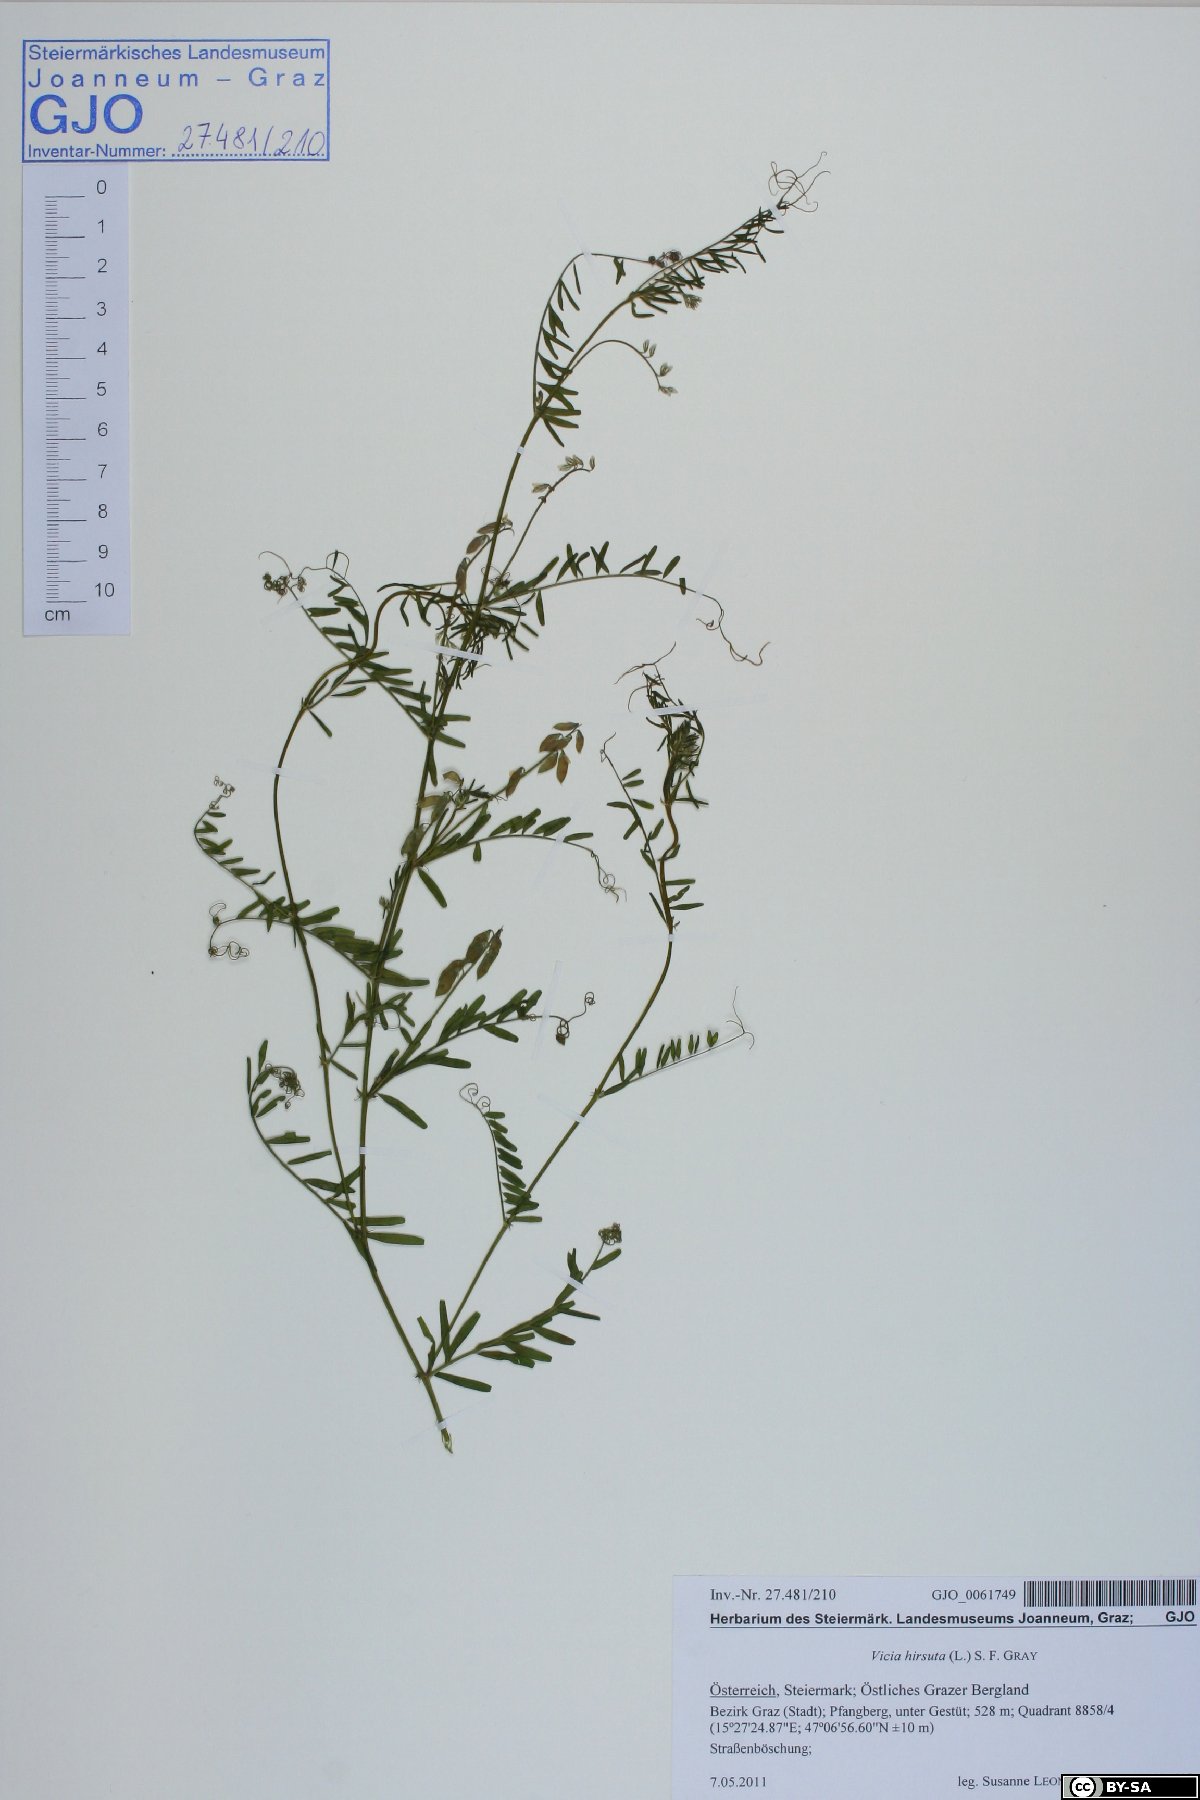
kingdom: Plantae
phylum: Tracheophyta
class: Magnoliopsida
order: Fabales
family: Fabaceae
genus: Vicia
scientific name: Vicia hirsuta
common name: Tiny vetch
